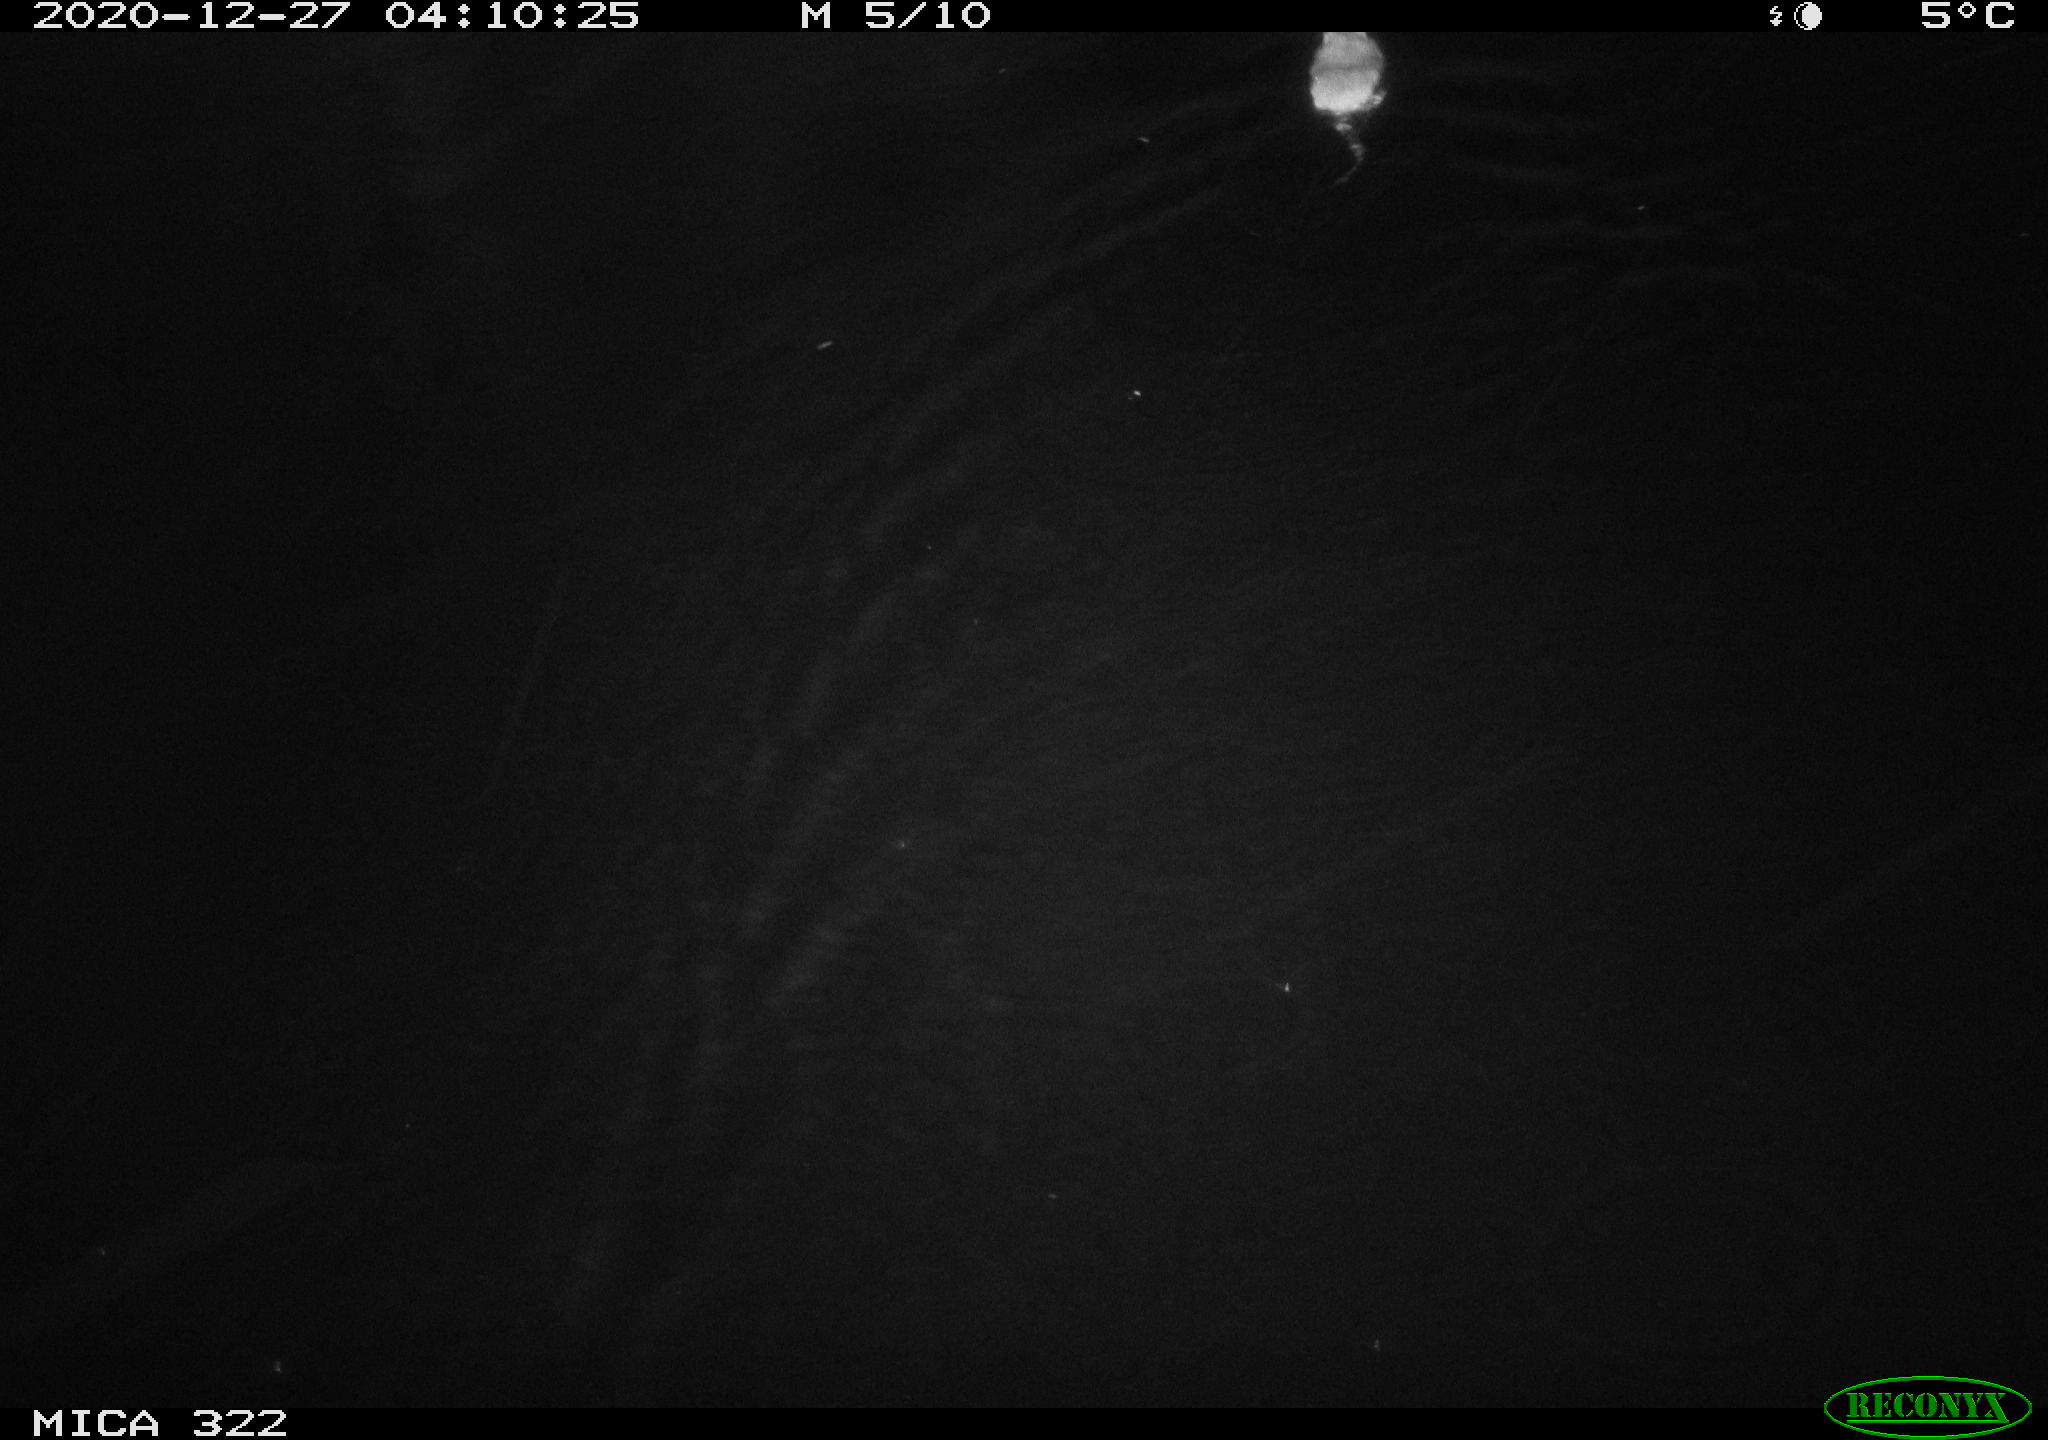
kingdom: Animalia
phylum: Chordata
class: Mammalia
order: Rodentia
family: Muridae
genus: Rattus
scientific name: Rattus norvegicus
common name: Brown rat
